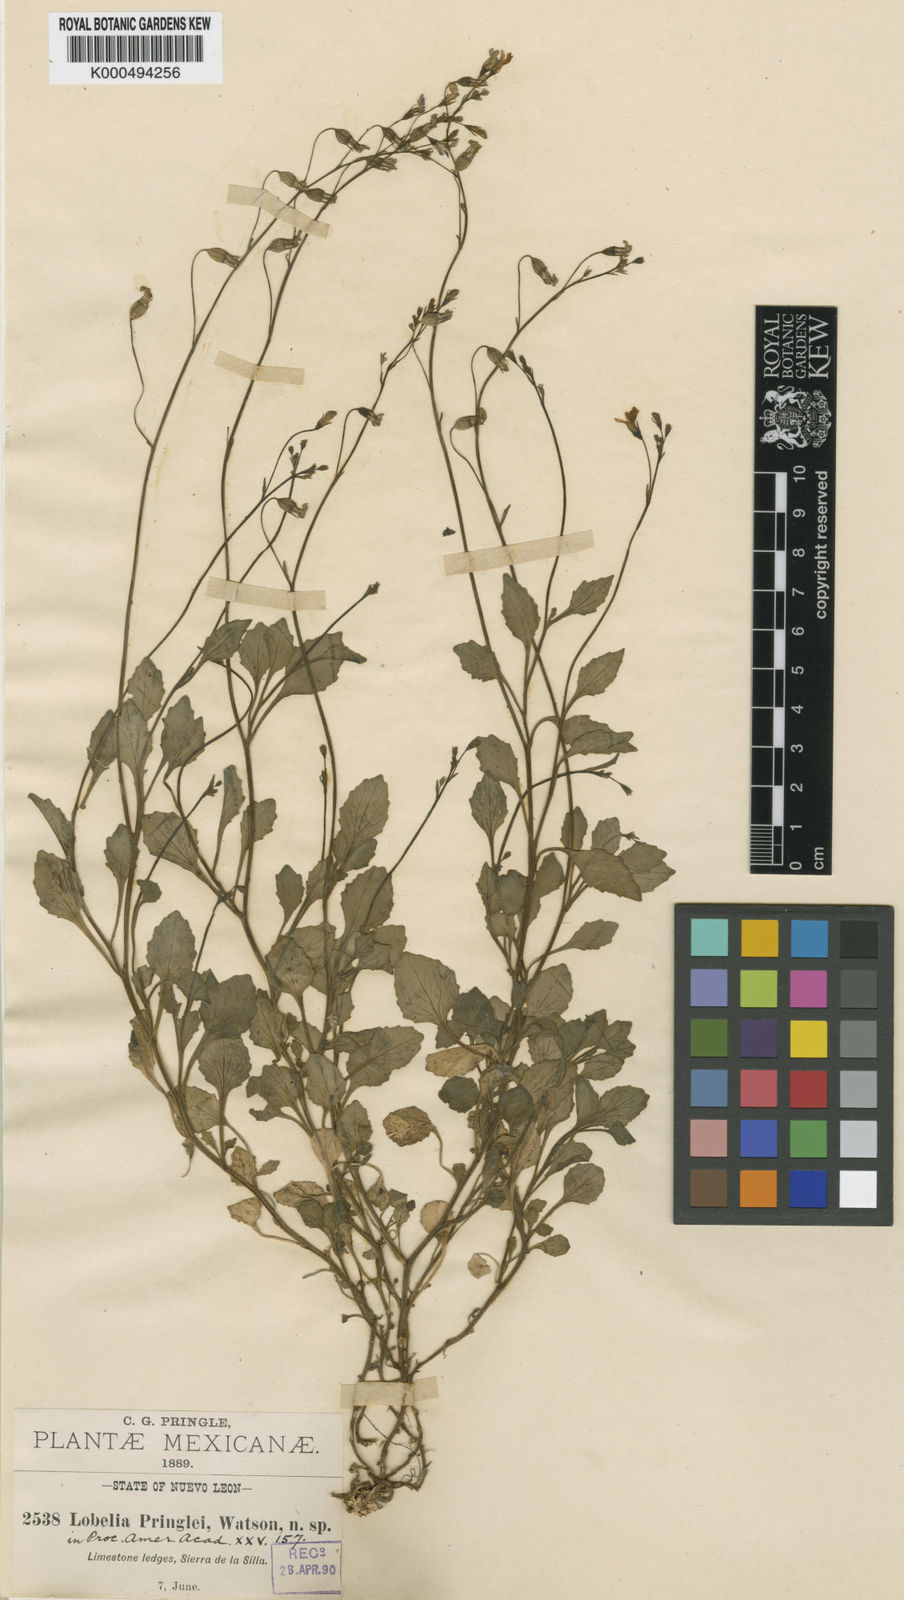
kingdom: Plantae
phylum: Tracheophyta
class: Magnoliopsida
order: Asterales
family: Campanulaceae
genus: Lobelia
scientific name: Lobelia pringlei
